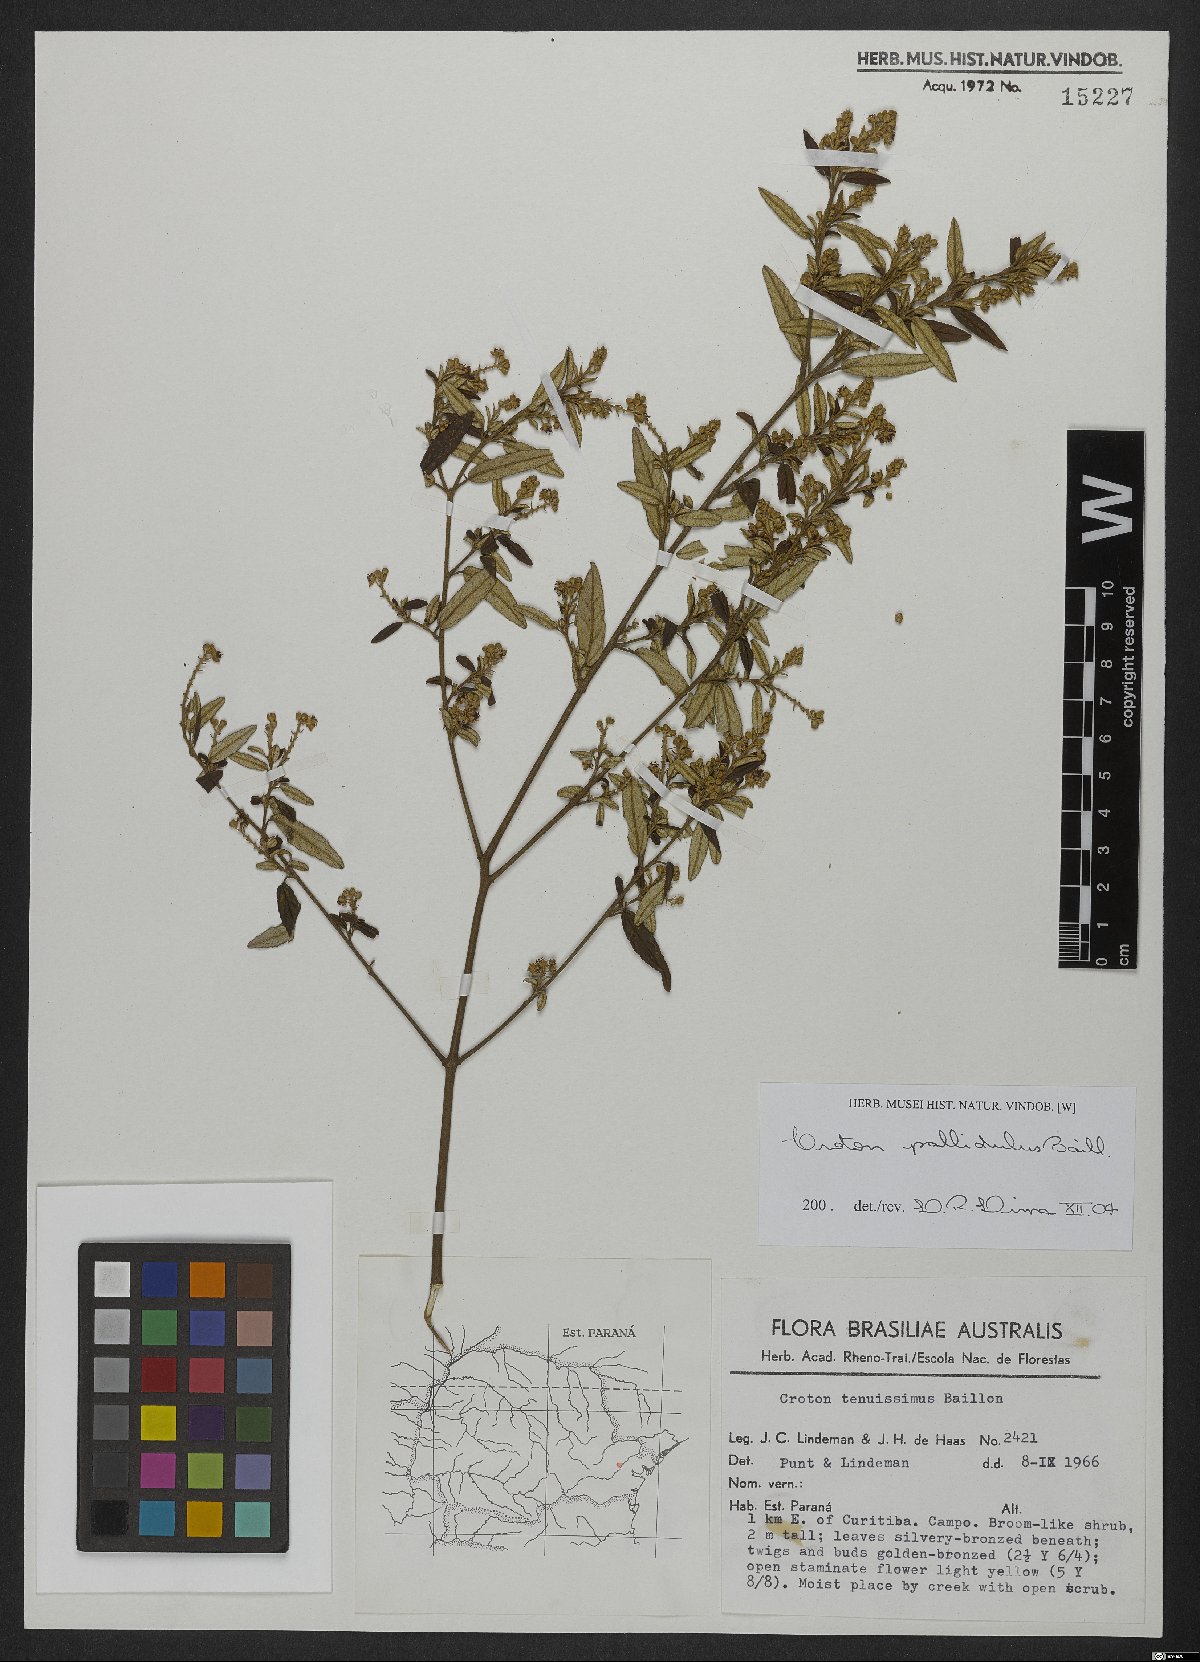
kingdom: Plantae
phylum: Tracheophyta
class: Magnoliopsida
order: Malpighiales
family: Euphorbiaceae
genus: Croton
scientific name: Croton ceanothifolius
